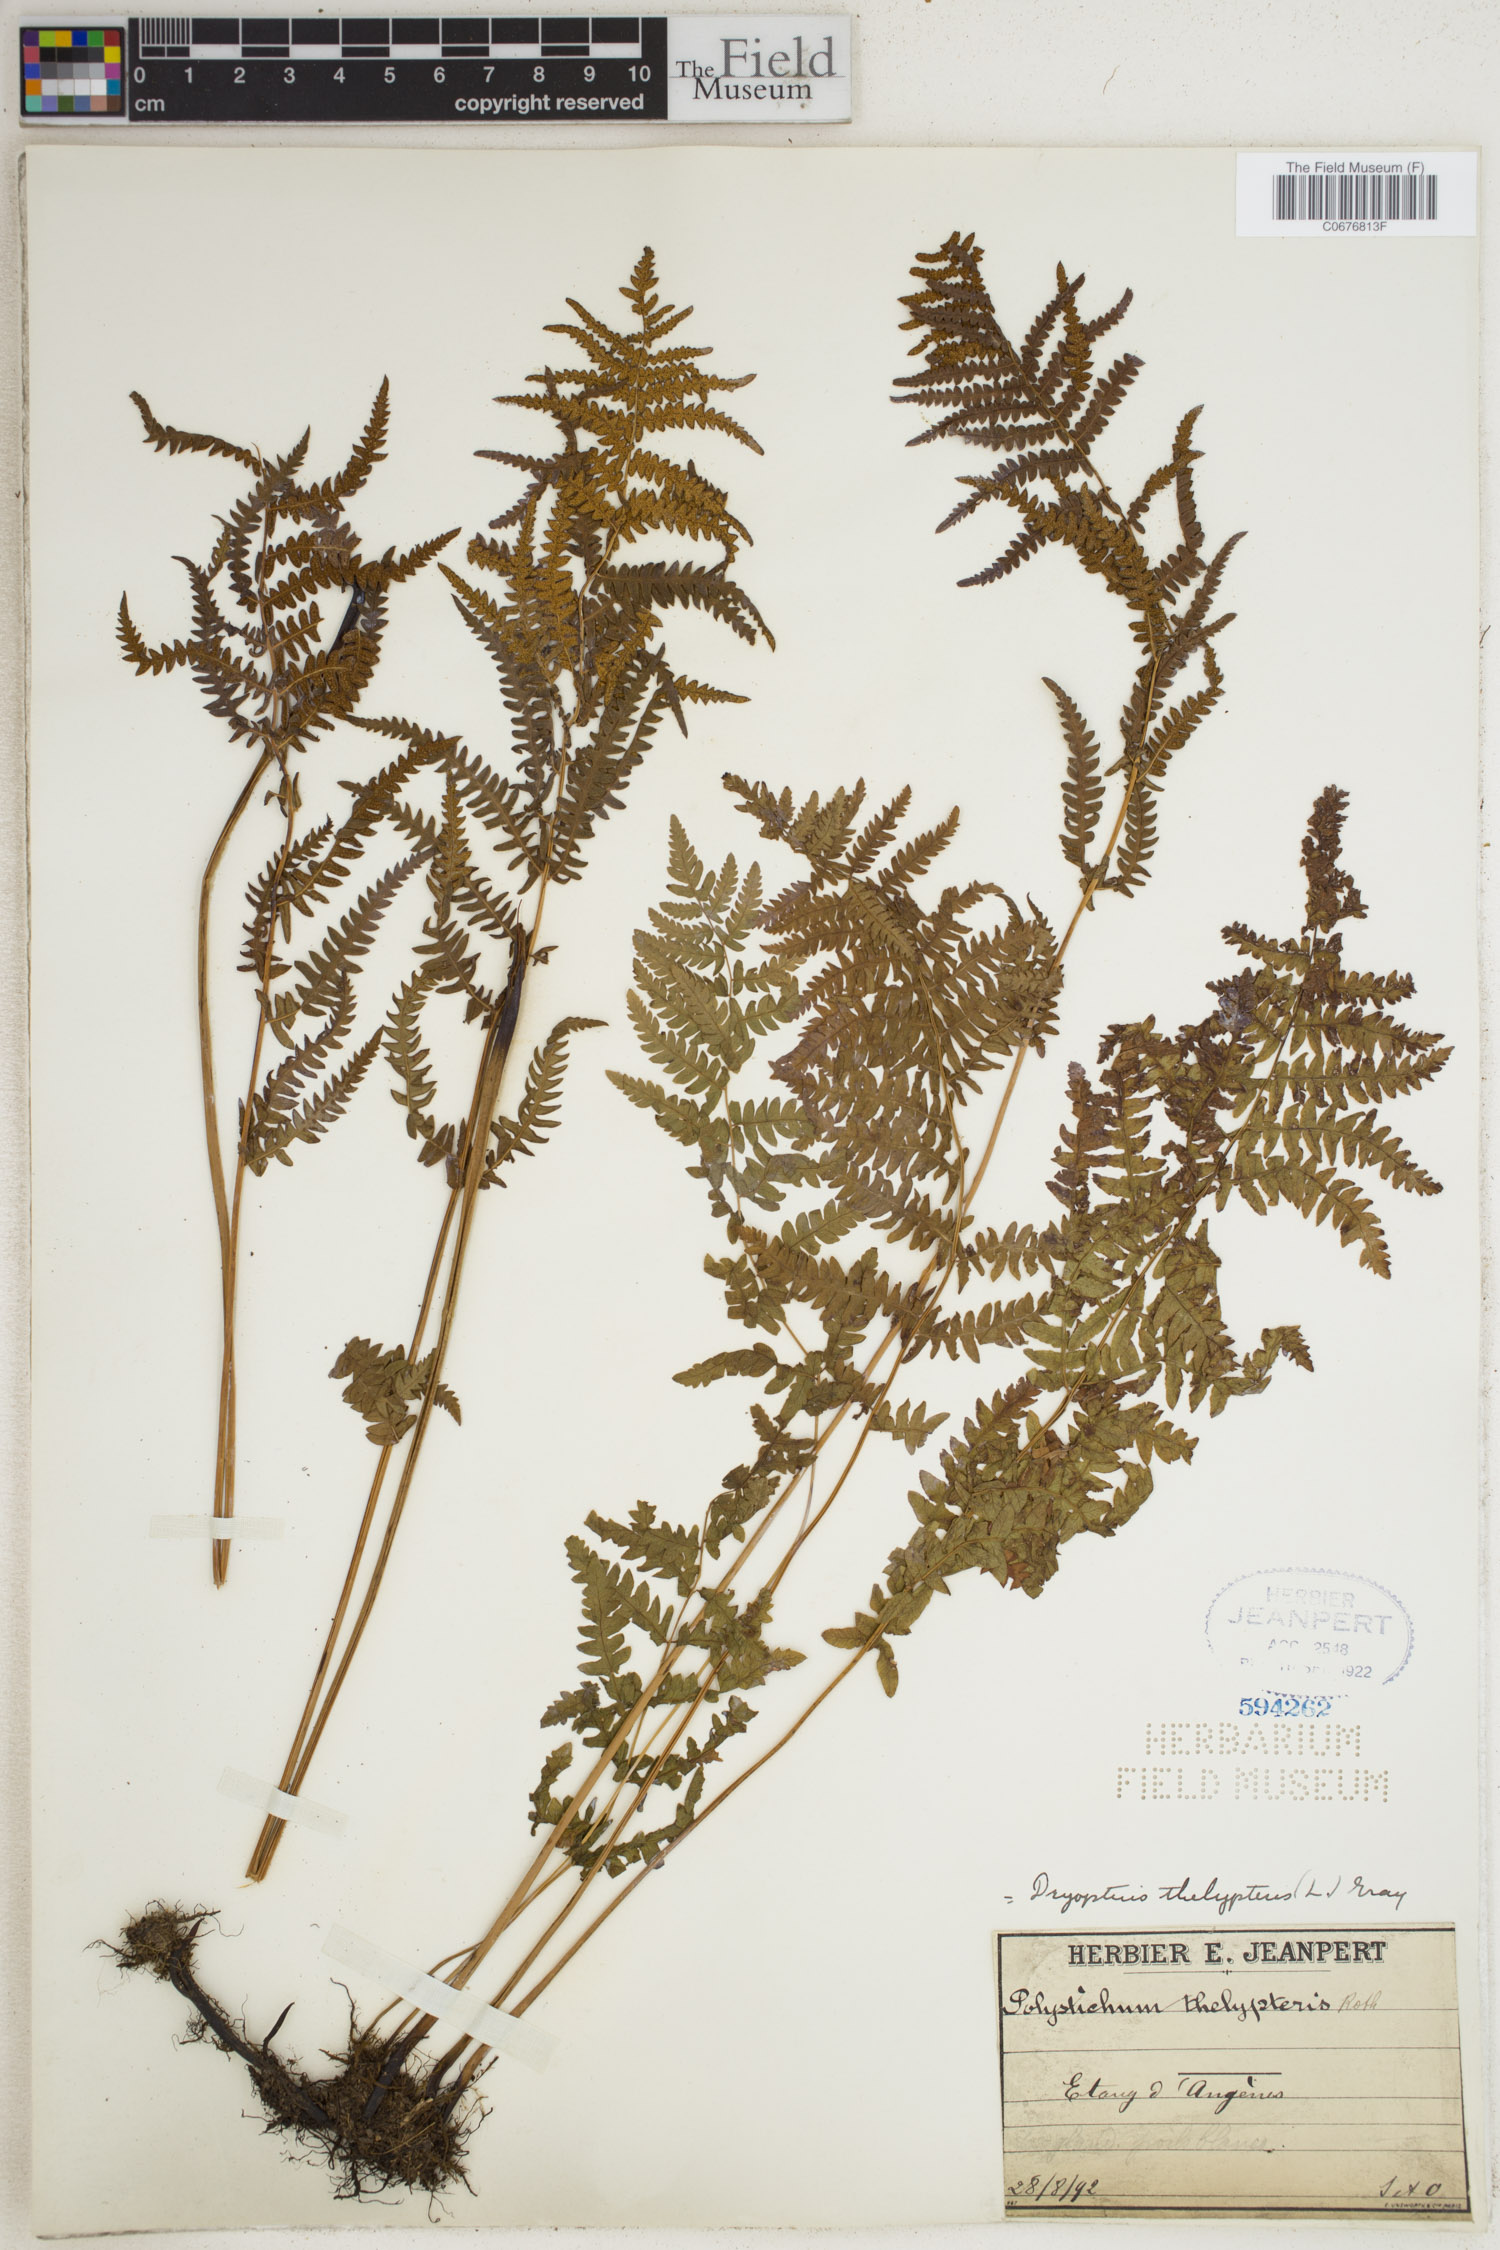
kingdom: Plantae
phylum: Tracheophyta
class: Polypodiopsida
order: Polypodiales
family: Thelypteridaceae
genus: Thelypteris
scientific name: Thelypteris palustris
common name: Marsh fern
